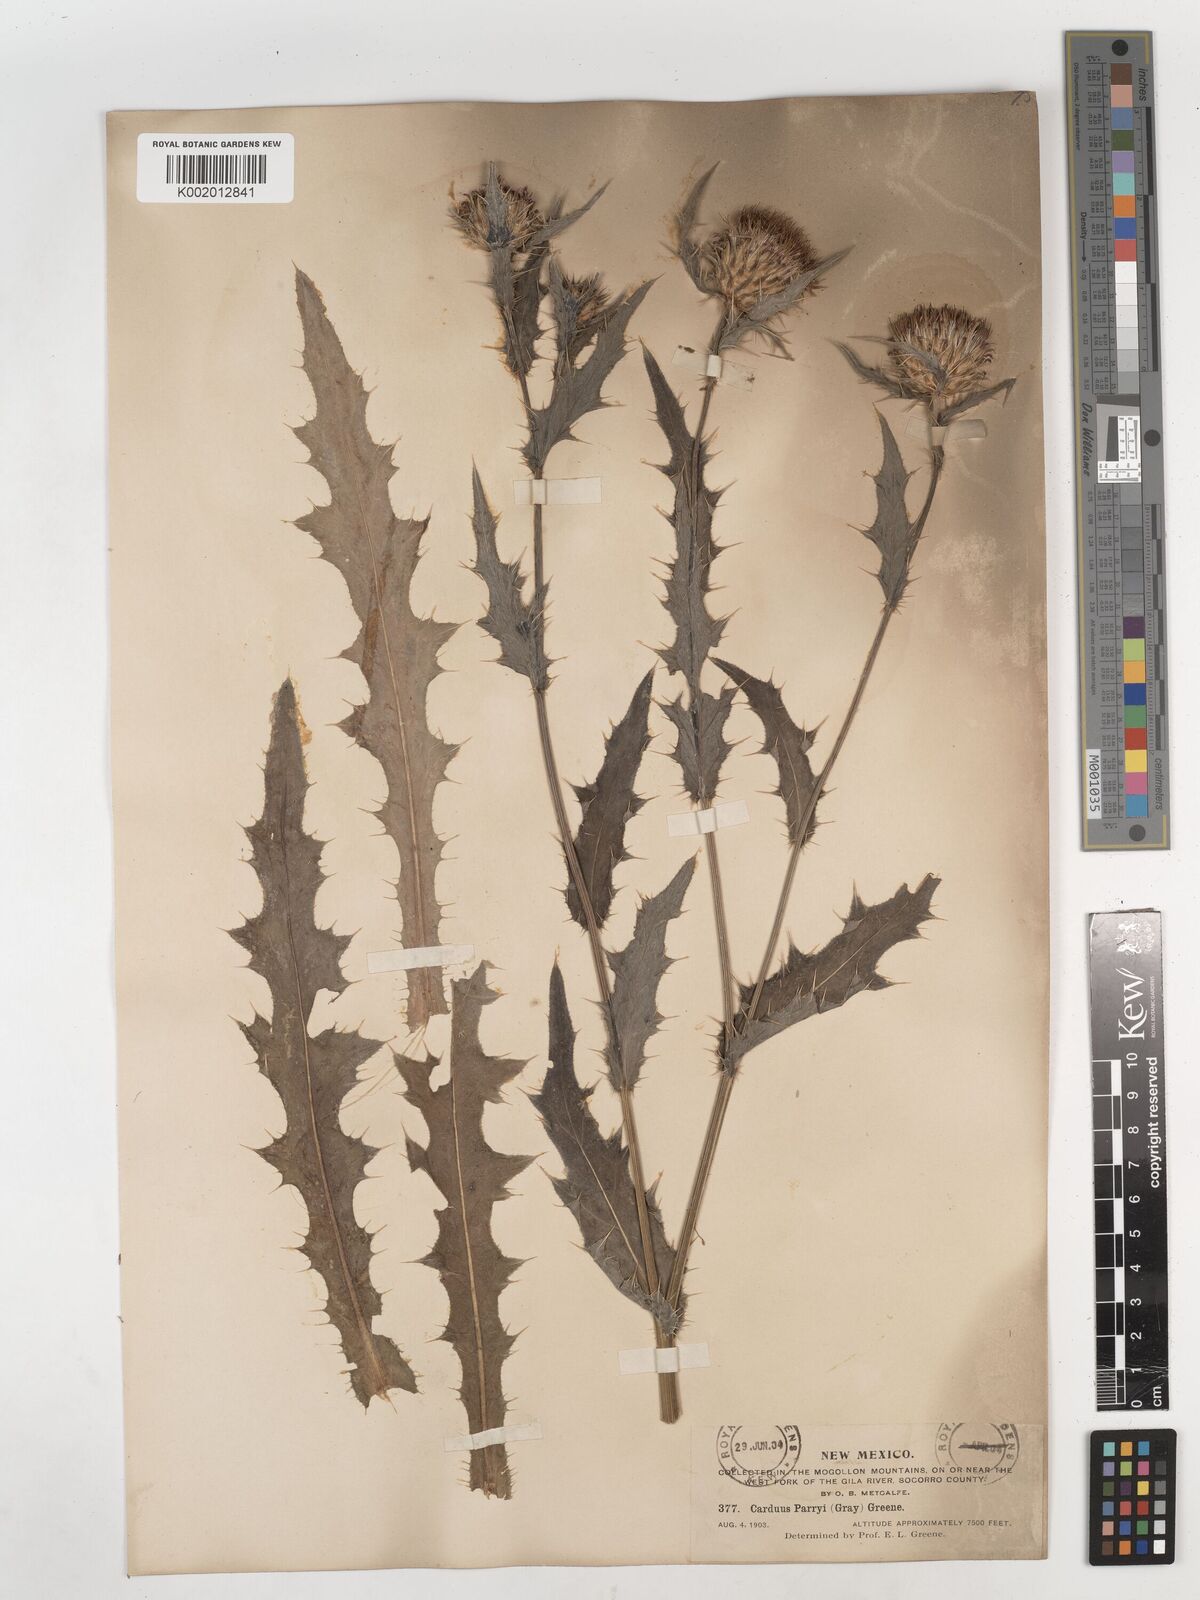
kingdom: Plantae
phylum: Tracheophyta
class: Magnoliopsida
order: Asterales
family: Asteraceae
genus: Cirsium
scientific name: Cirsium
